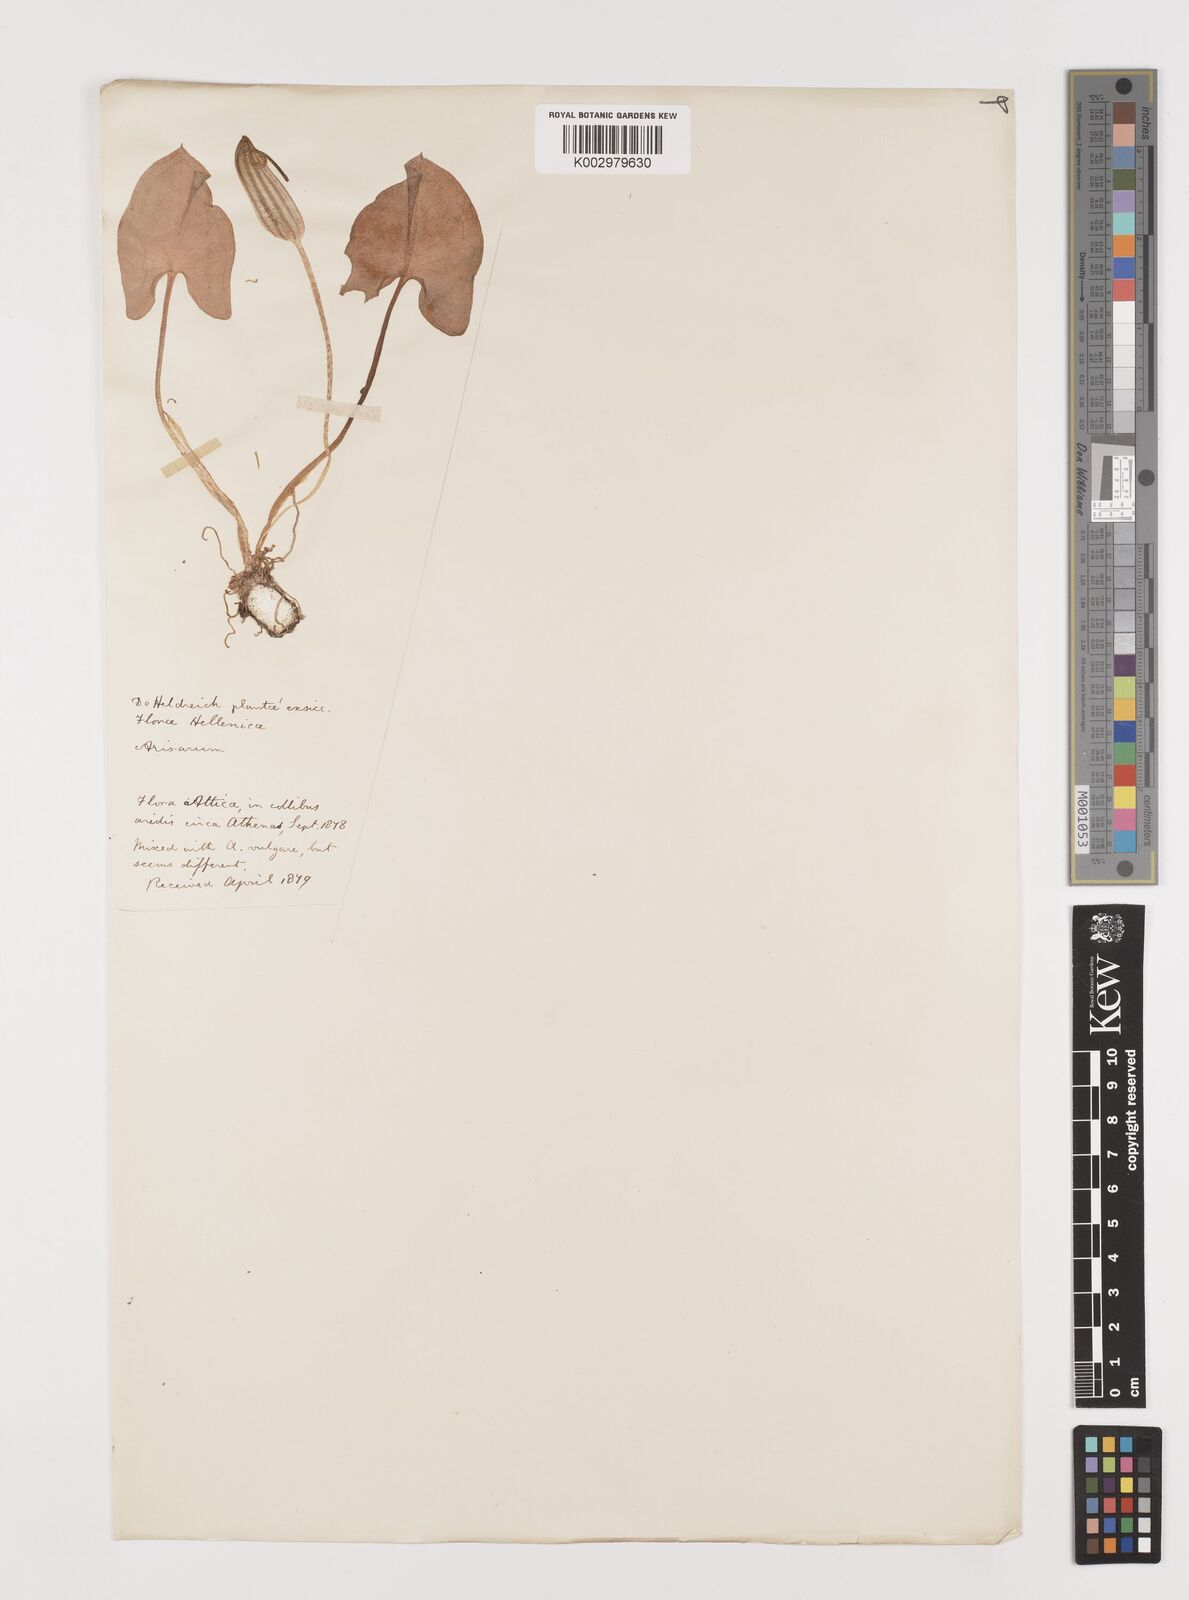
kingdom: Plantae
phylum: Tracheophyta
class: Liliopsida
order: Alismatales
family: Araceae
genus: Arisarum
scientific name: Arisarum vulgare
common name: Common arisarum
